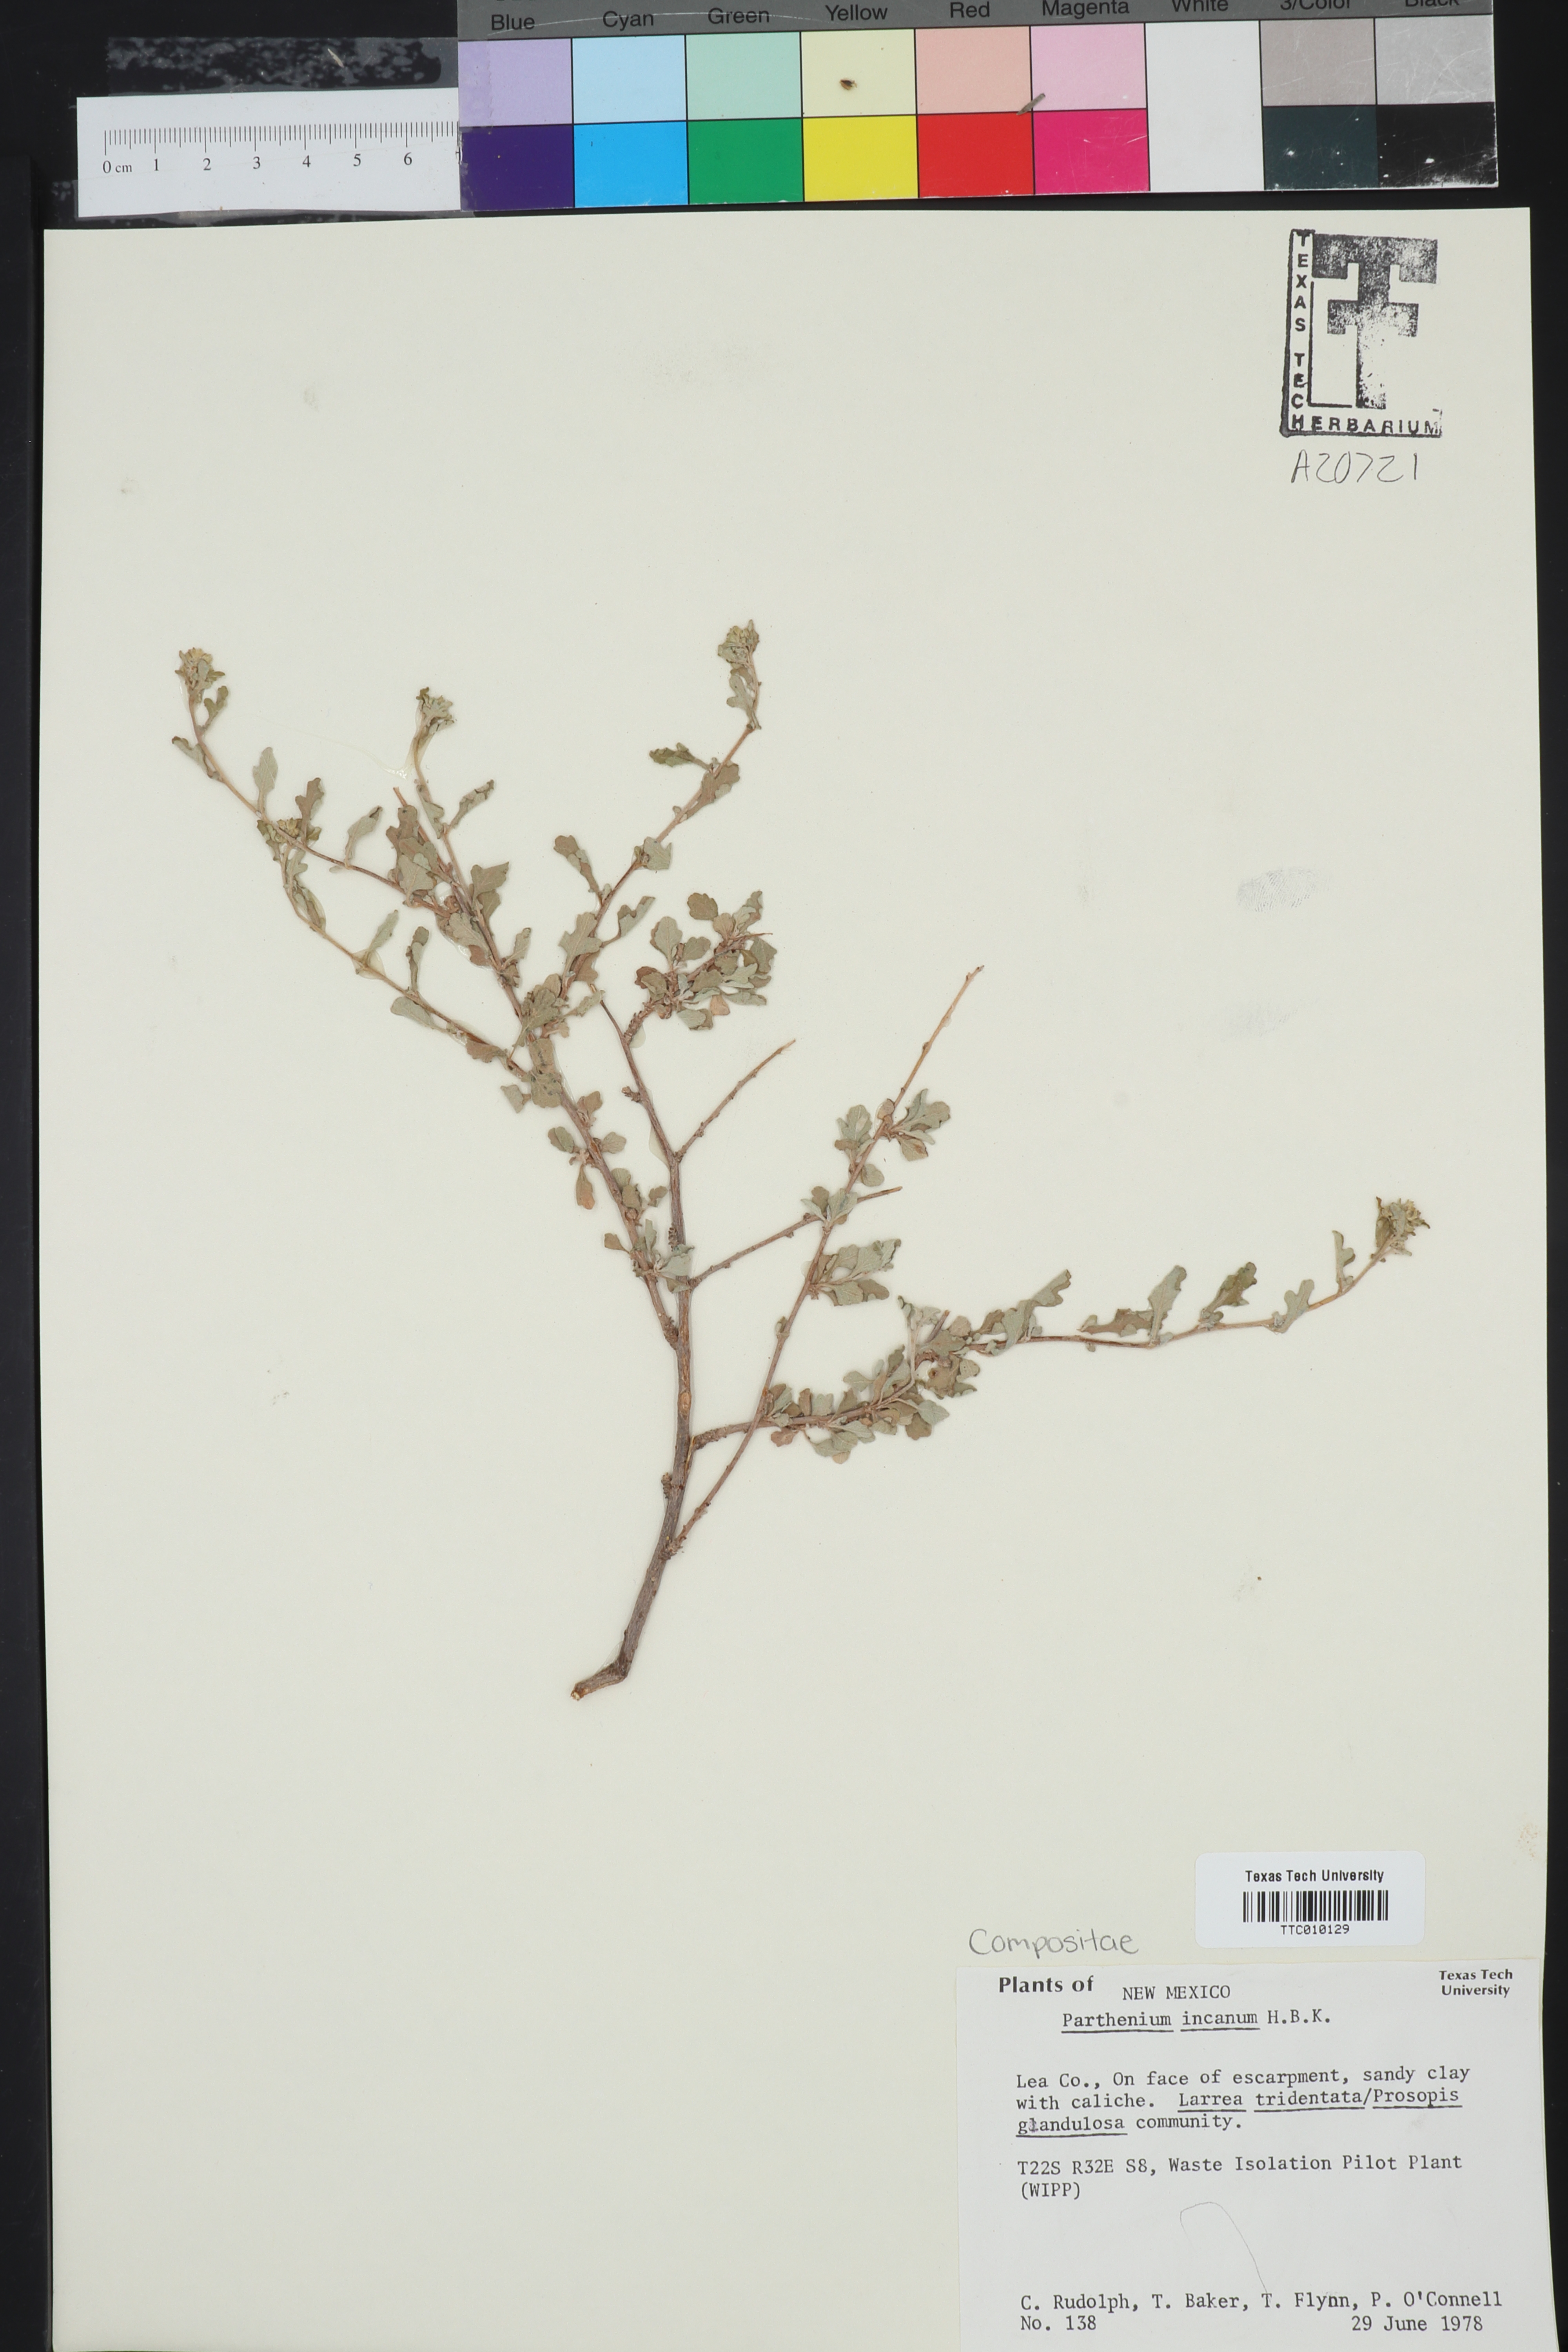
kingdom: Plantae
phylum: Tracheophyta
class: Magnoliopsida
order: Asterales
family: Asteraceae
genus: Parthenium
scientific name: Parthenium incanum
